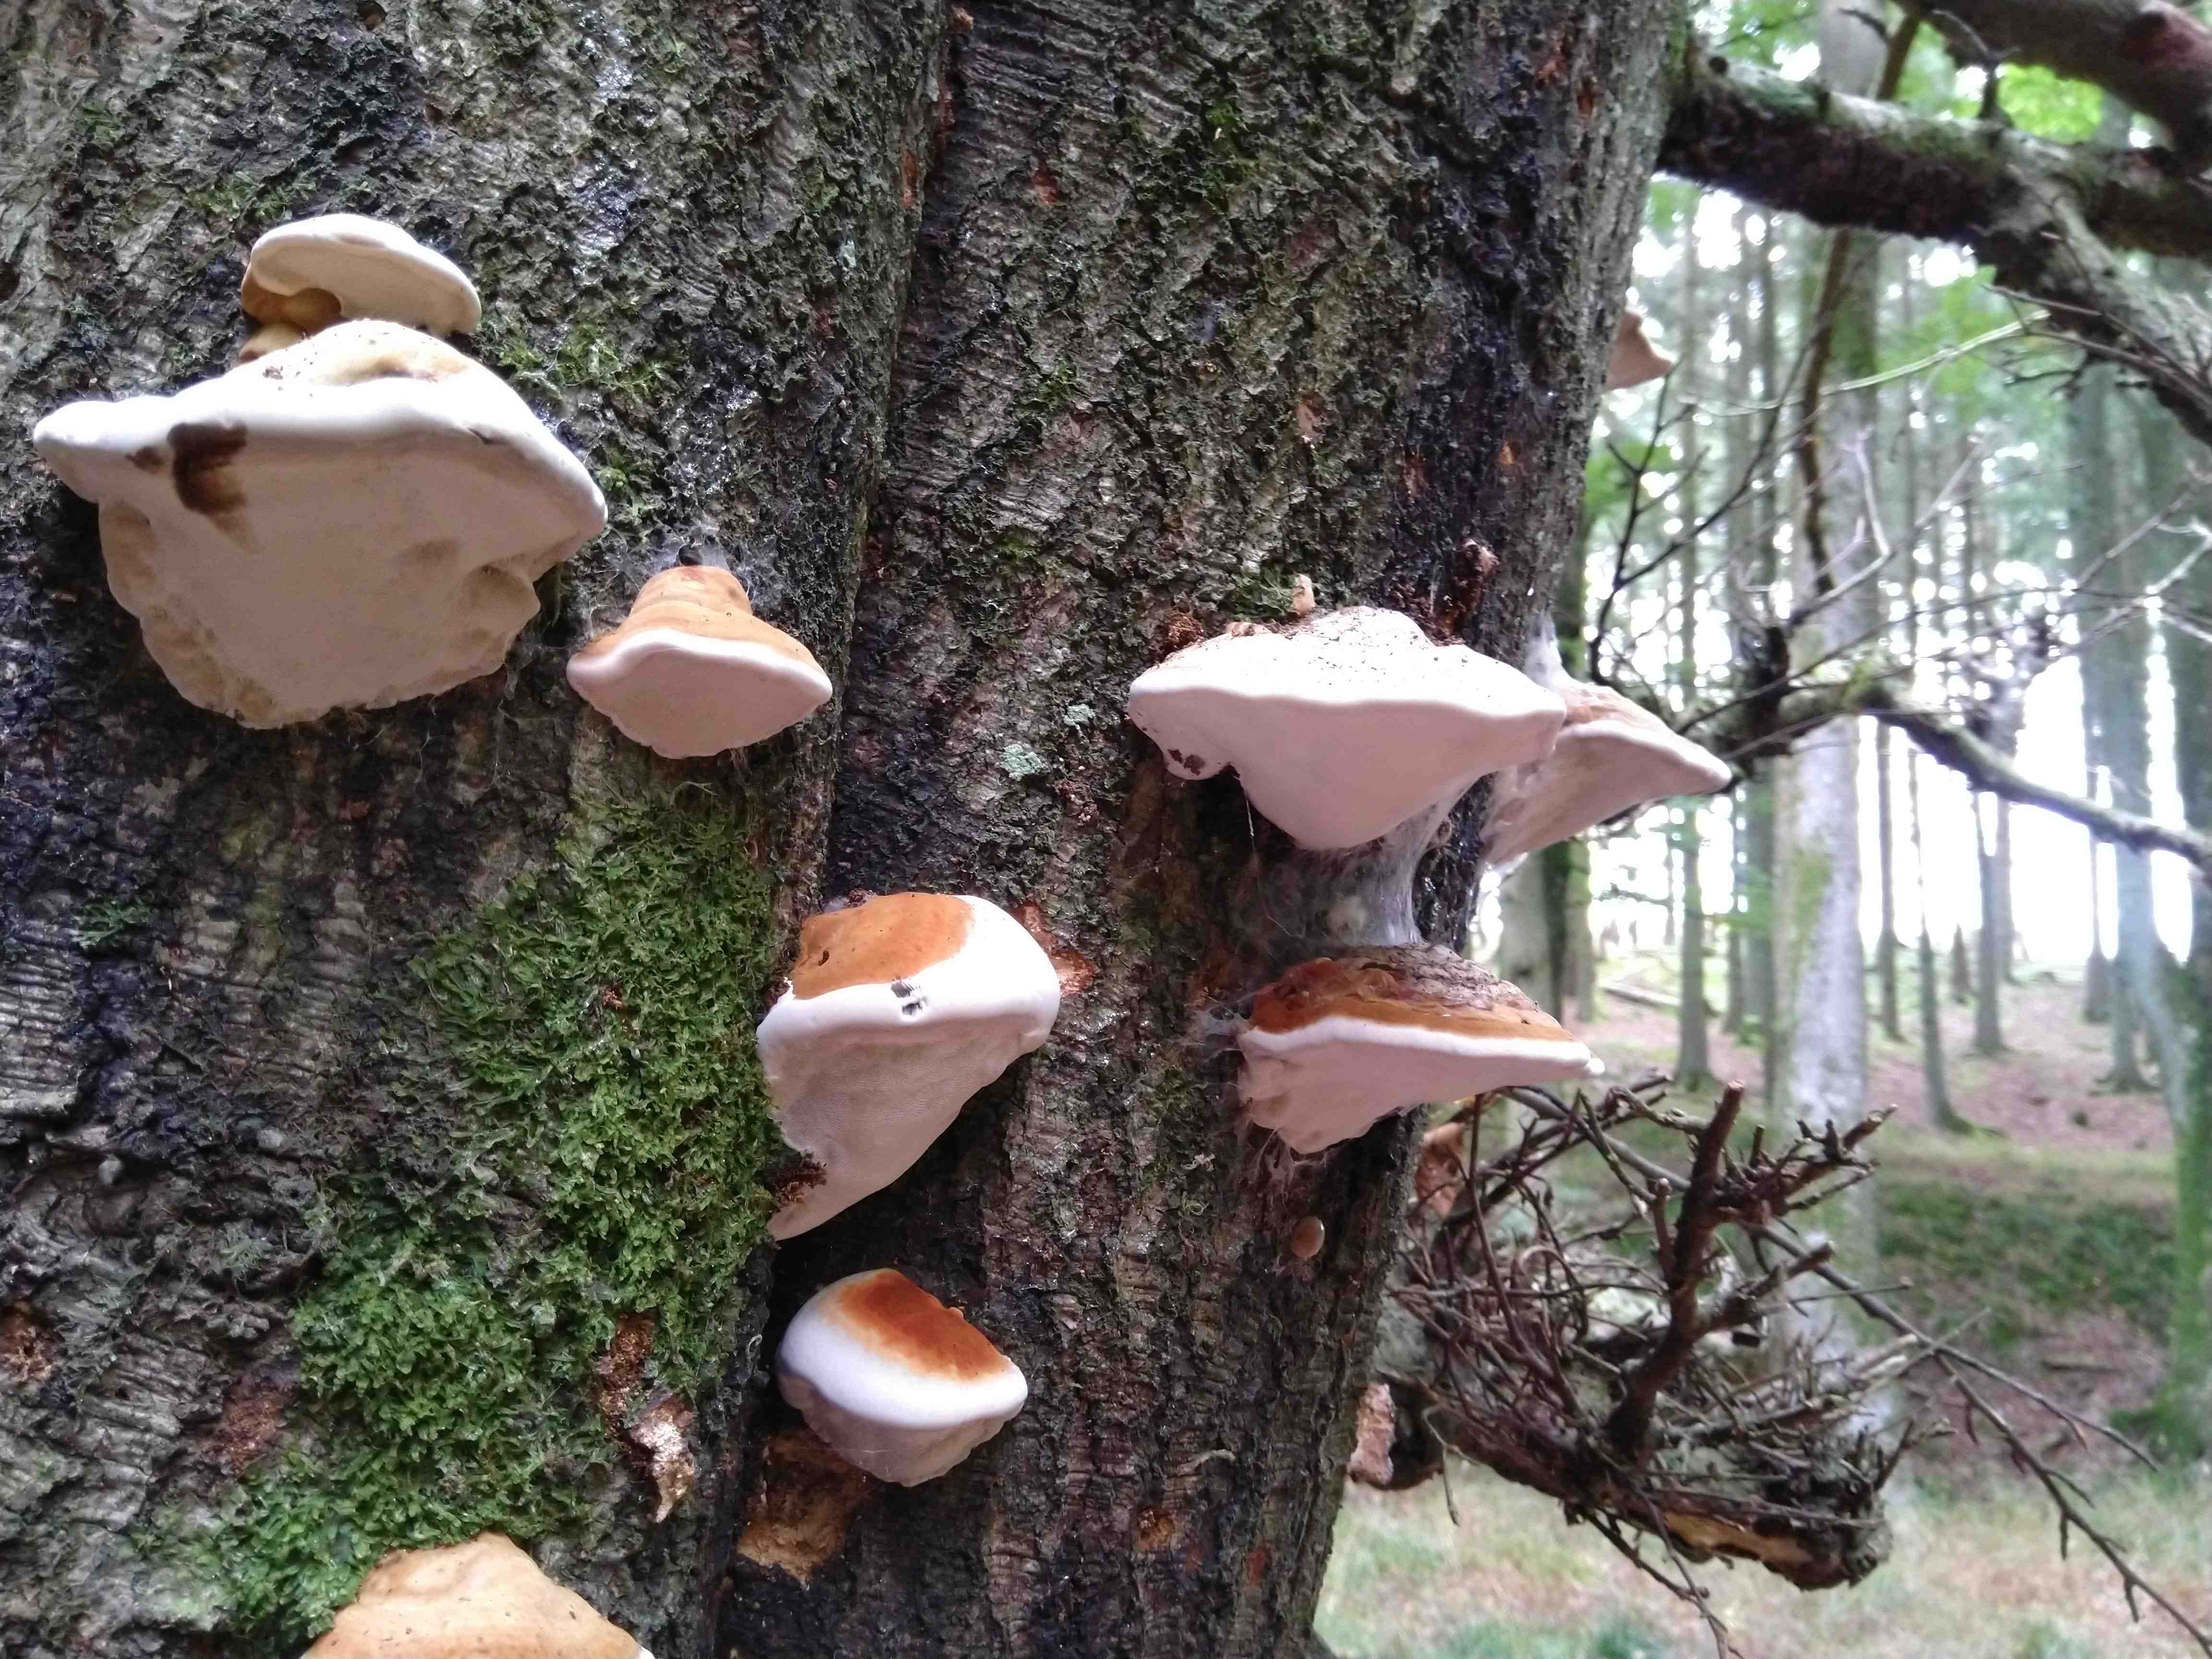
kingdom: Fungi
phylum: Basidiomycota
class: Agaricomycetes
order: Polyporales
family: Polyporaceae
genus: Fomes
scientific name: Fomes fomentarius
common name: tøndersvamp
